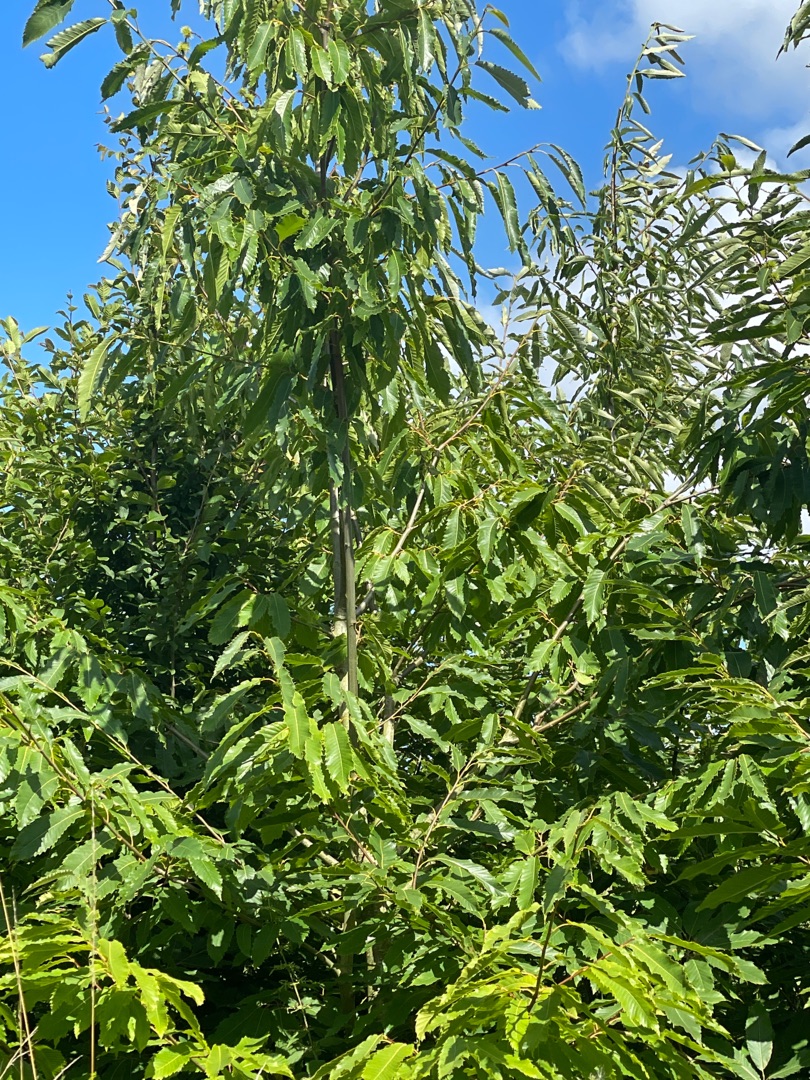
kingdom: Plantae
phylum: Tracheophyta
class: Magnoliopsida
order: Fagales
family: Fagaceae
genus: Castanea
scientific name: Castanea sativa
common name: Ægte kastanie
